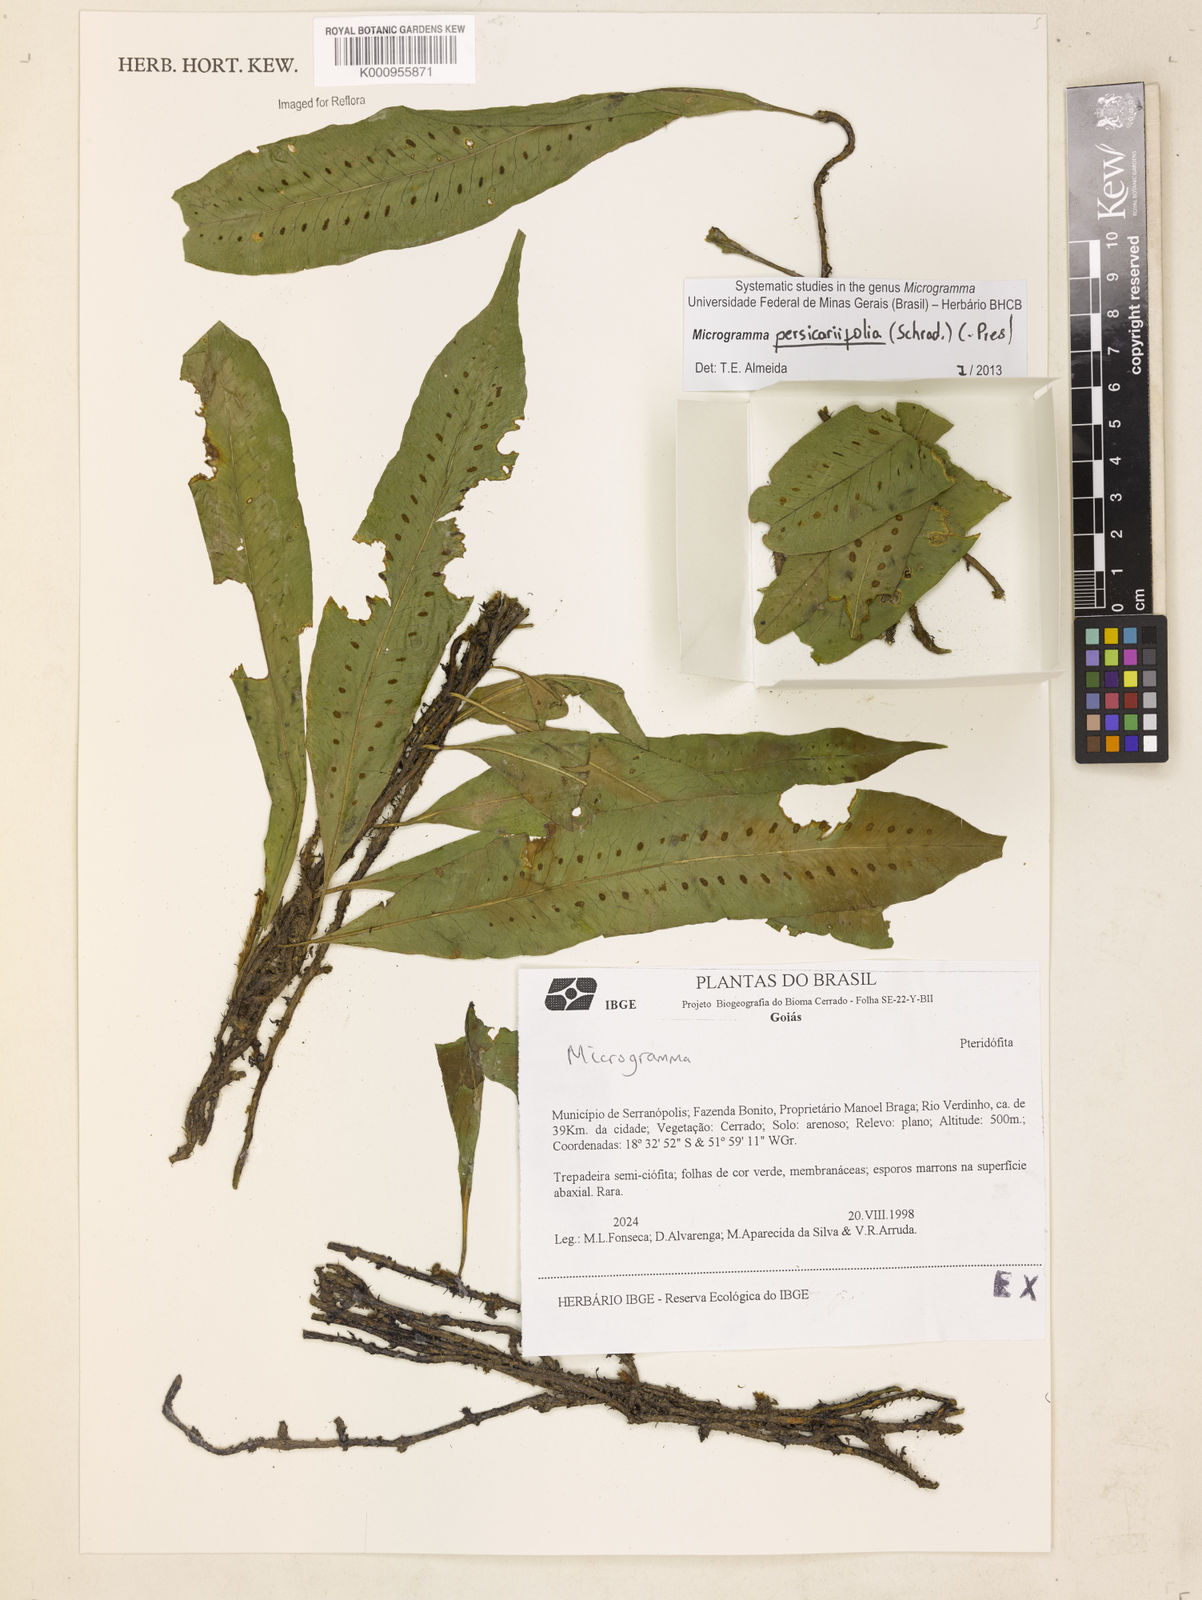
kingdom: Plantae
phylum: Tracheophyta
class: Polypodiopsida
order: Polypodiales
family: Polypodiaceae
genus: Microgramma
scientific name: Microgramma persicariifolia
